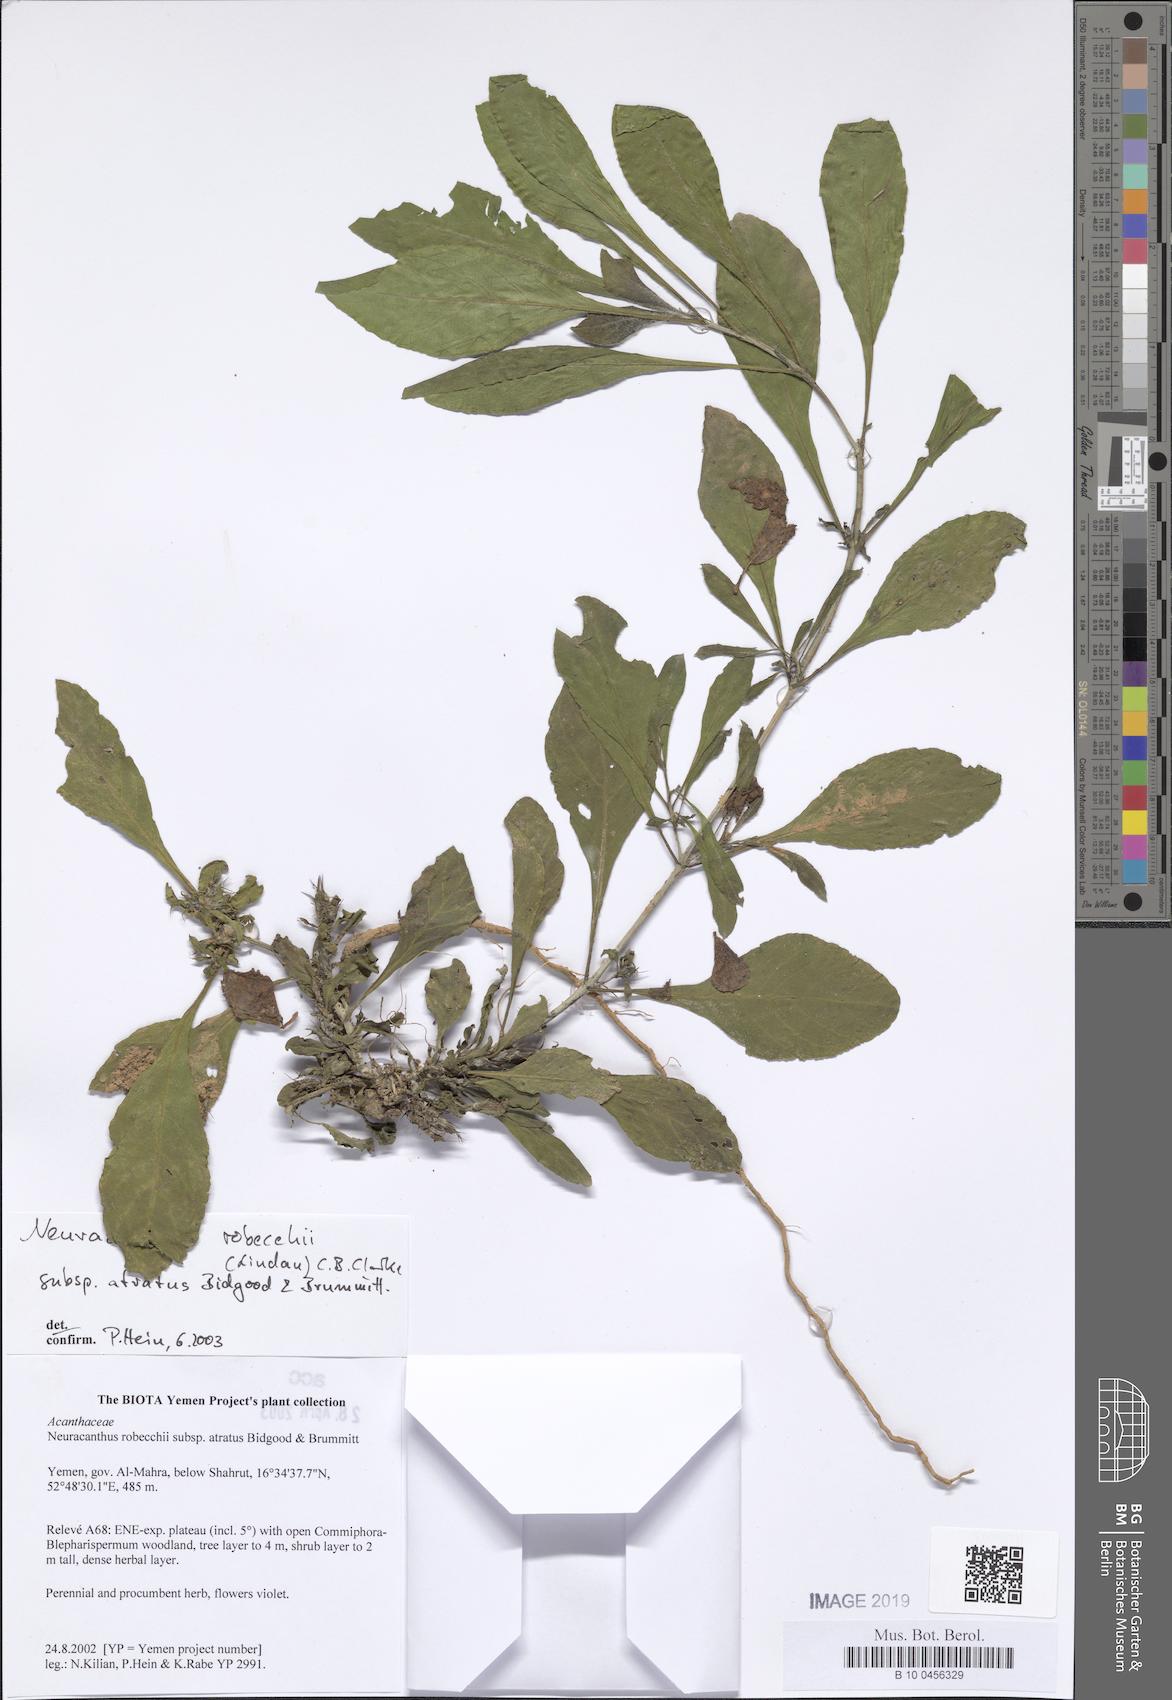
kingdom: Plantae
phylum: Tracheophyta
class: Magnoliopsida
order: Lamiales
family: Acanthaceae
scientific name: Acanthaceae
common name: Acanthaceae
